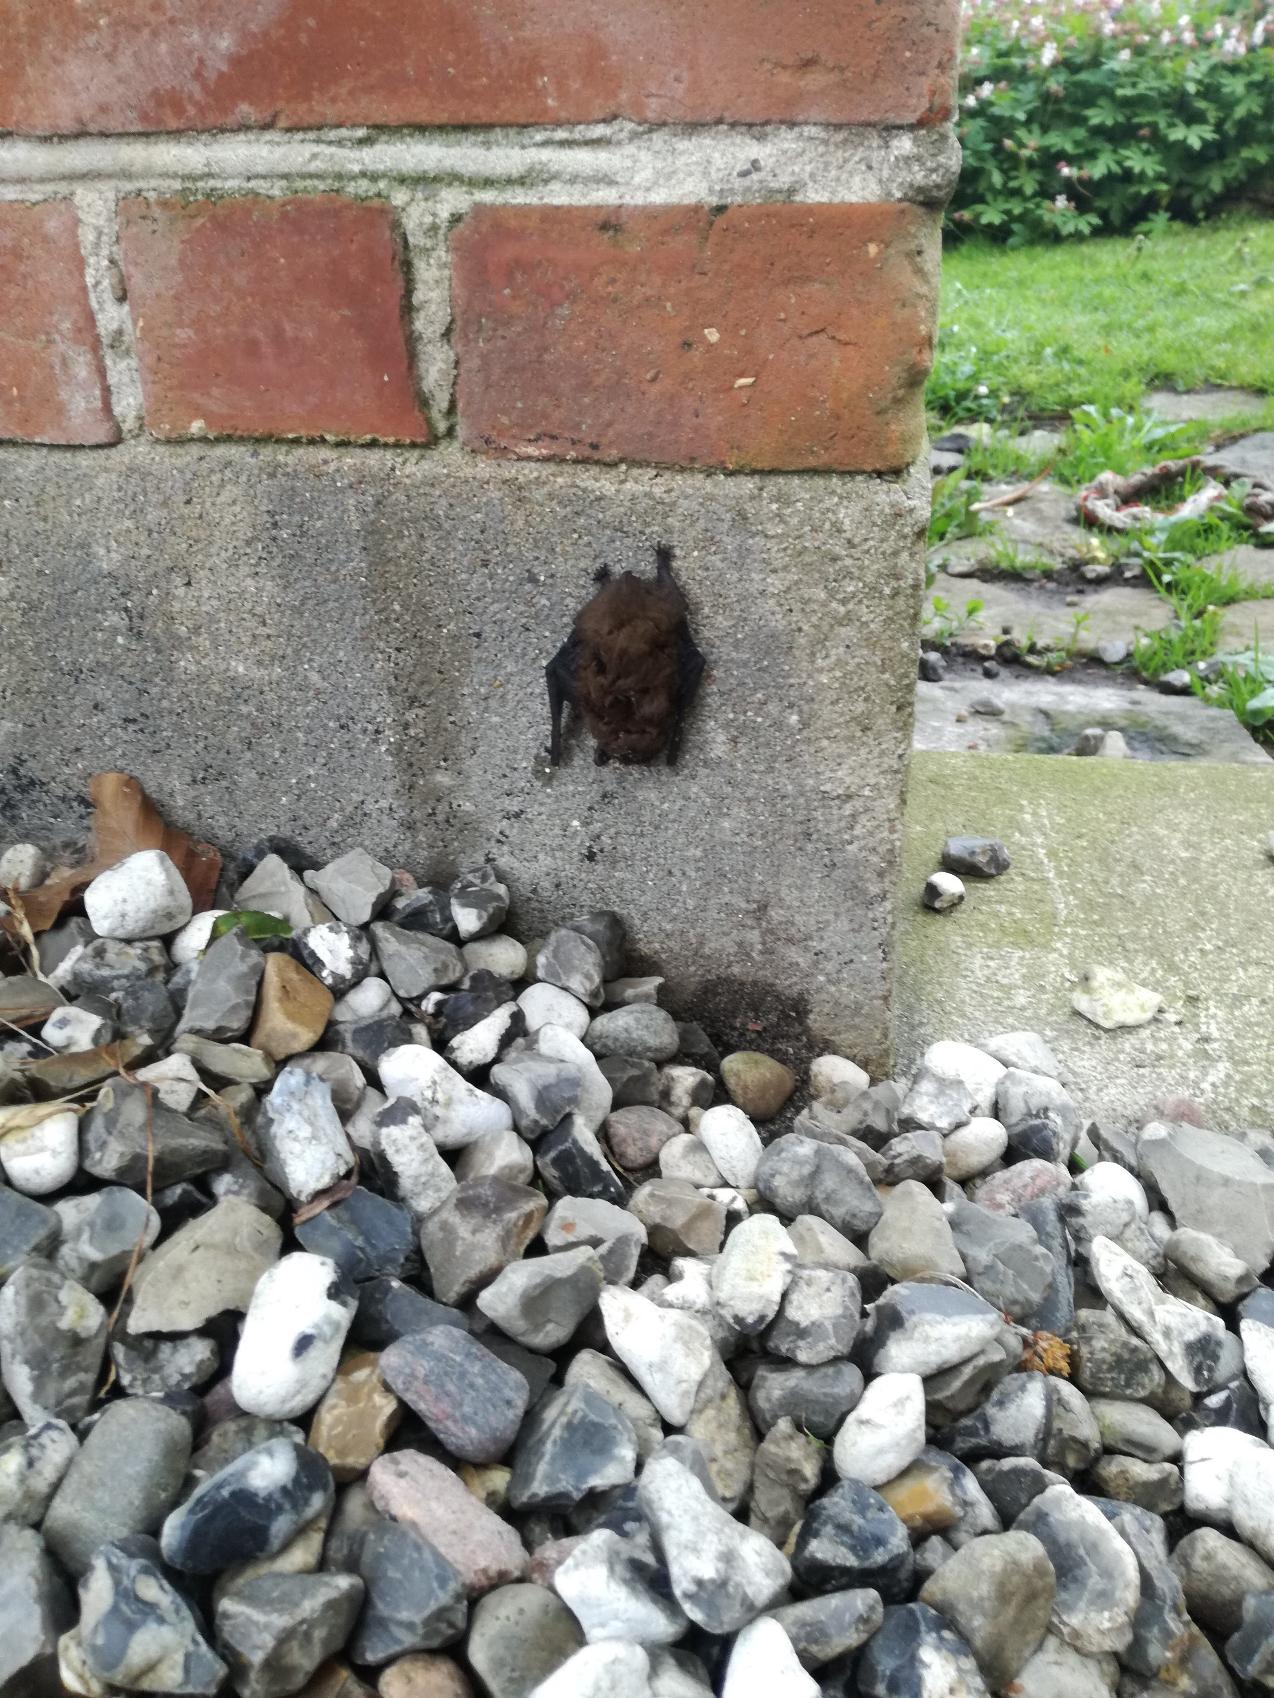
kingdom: Animalia
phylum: Chordata
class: Mammalia
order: Chiroptera
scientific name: Chiroptera
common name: Flagermus
